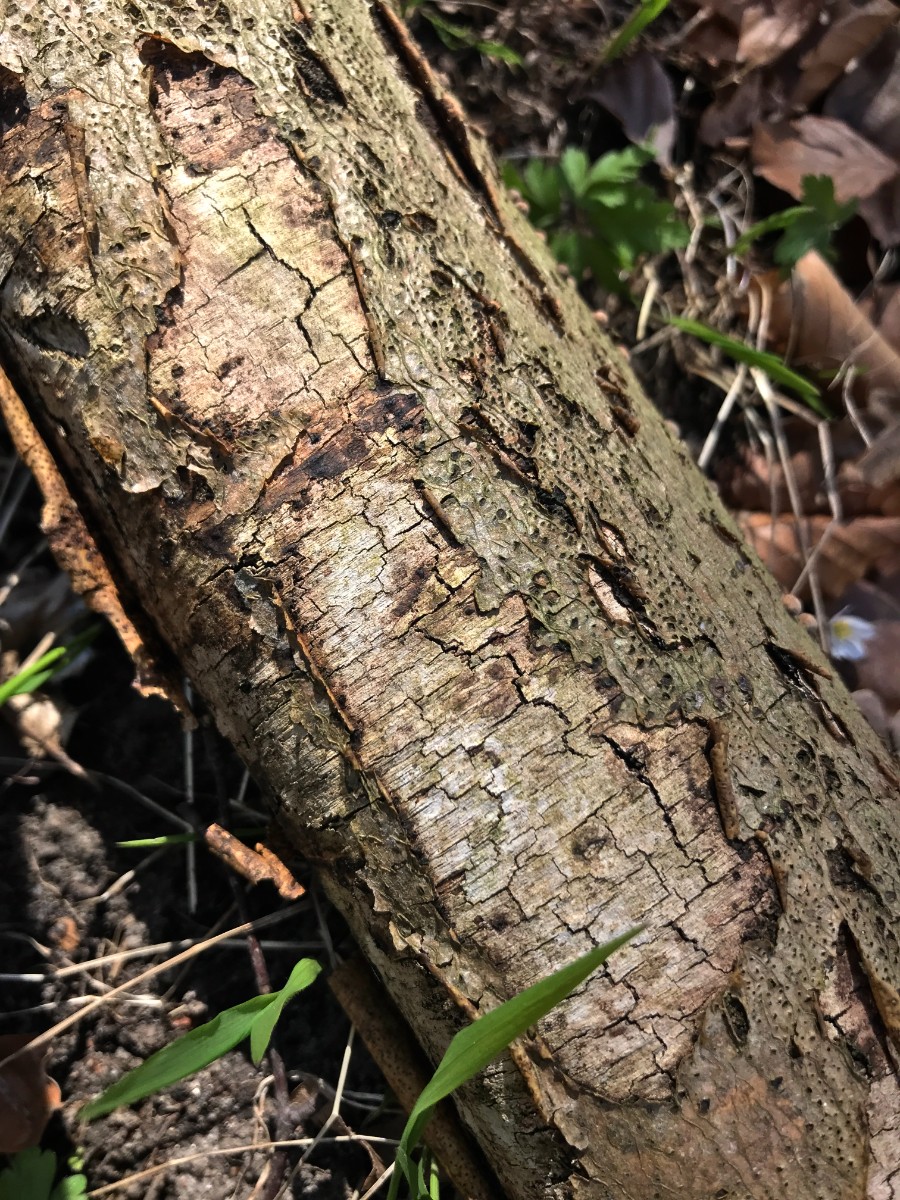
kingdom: Fungi
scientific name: Fungi
